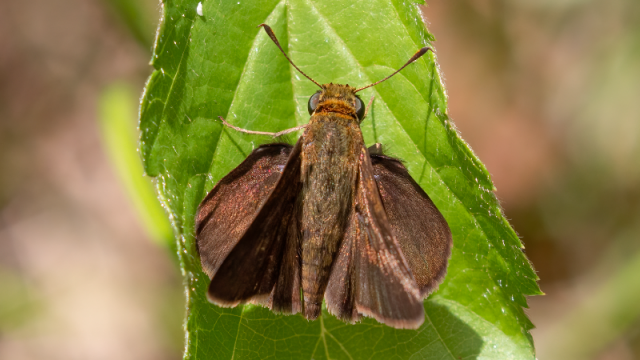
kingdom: Animalia
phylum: Arthropoda
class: Insecta
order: Lepidoptera
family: Hesperiidae
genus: Euphyes
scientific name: Euphyes vestris
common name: Dun Skipper
